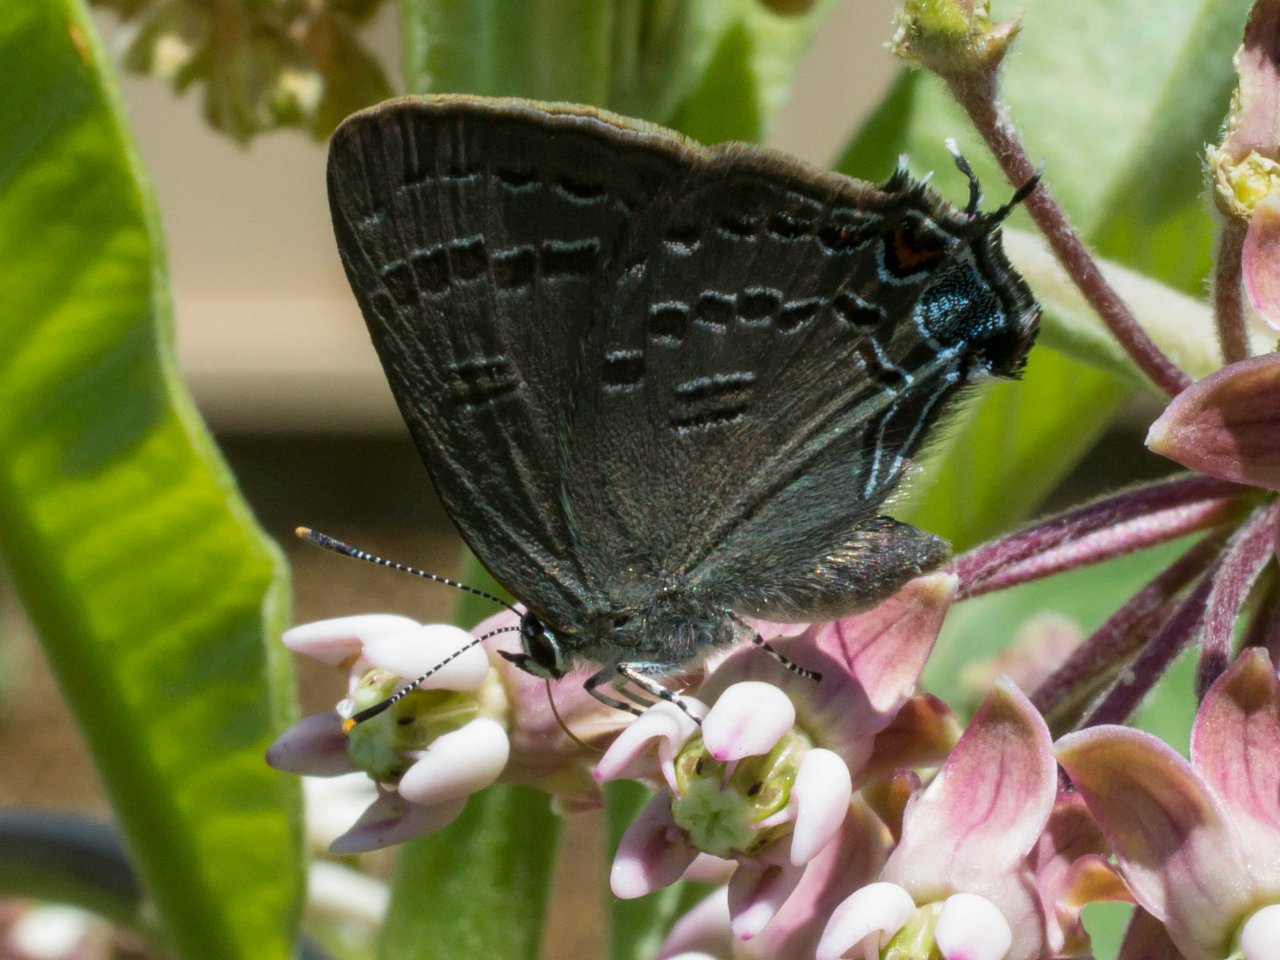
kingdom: Animalia
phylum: Arthropoda
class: Insecta
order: Lepidoptera
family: Lycaenidae
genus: Satyrium
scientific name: Satyrium calanus
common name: Banded Hairstreak
